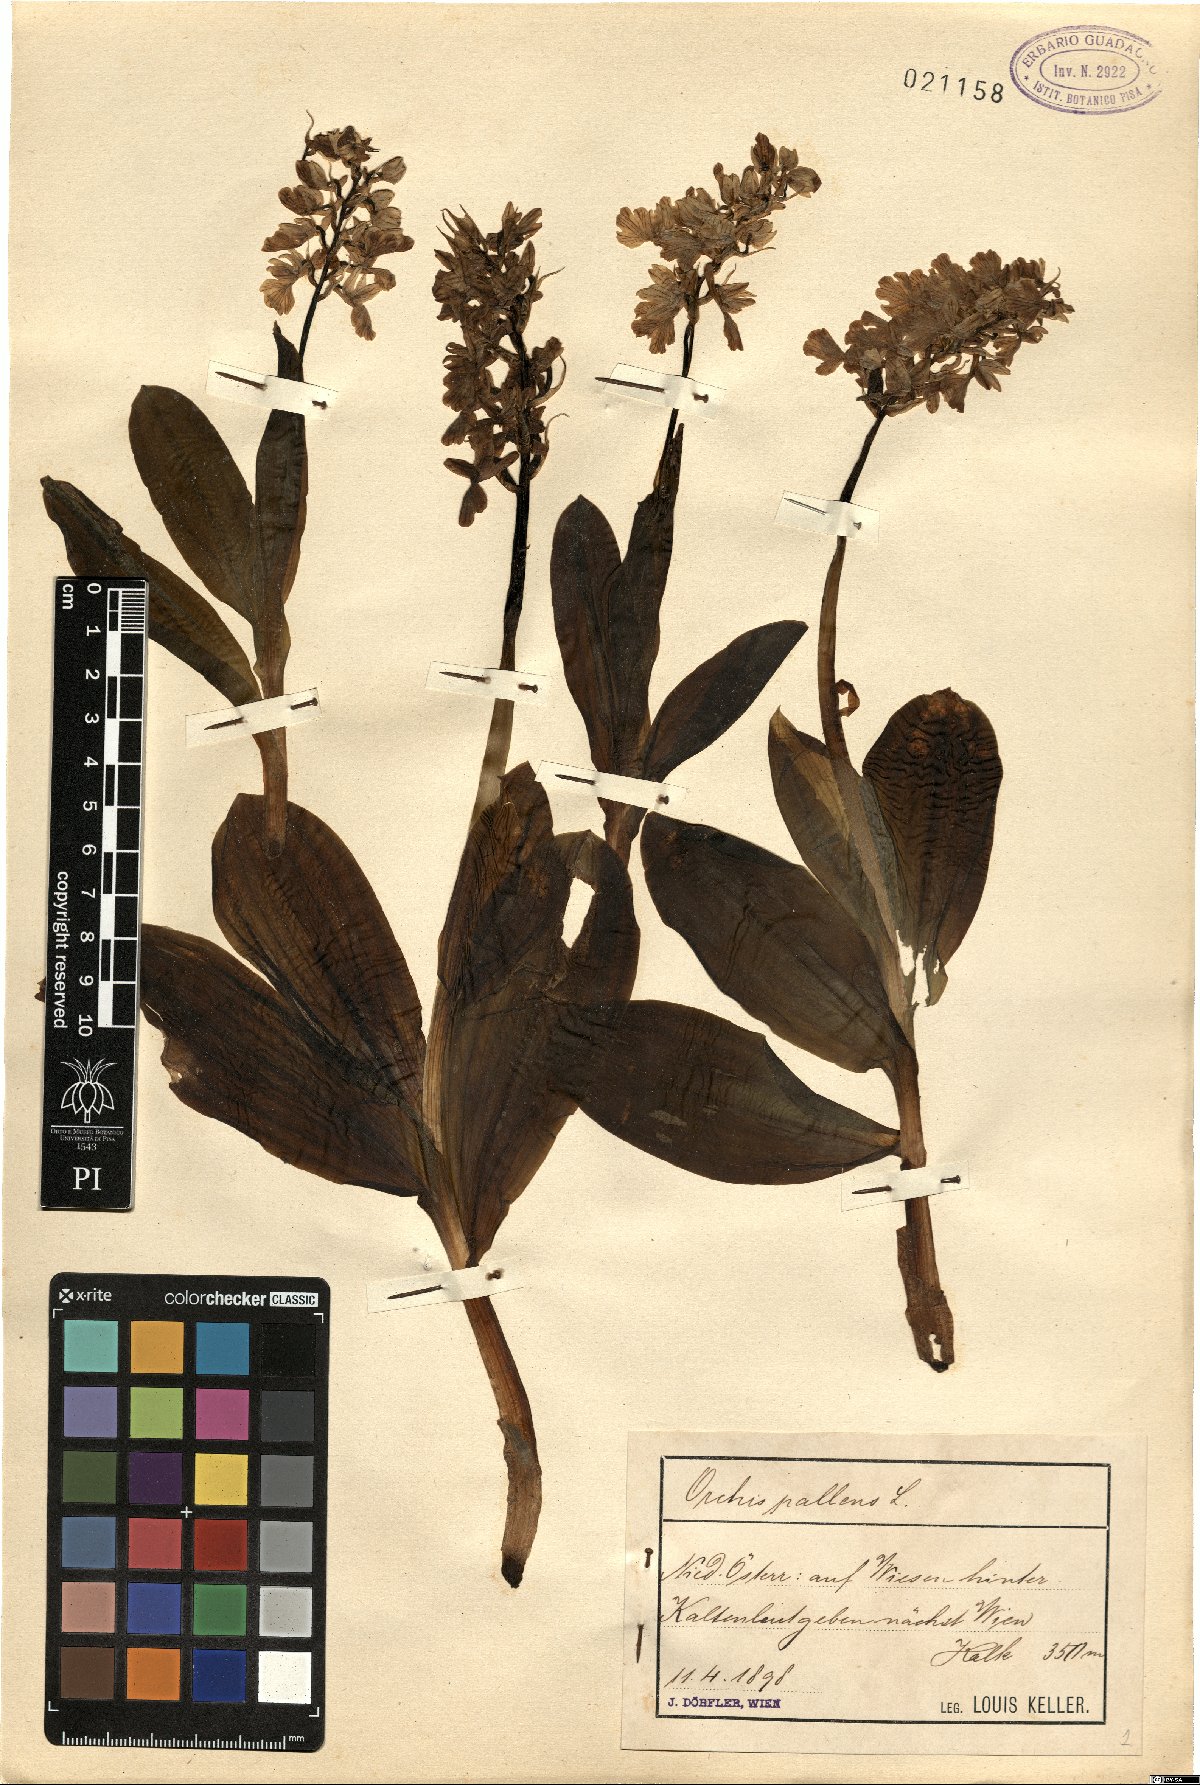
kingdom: Plantae
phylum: Tracheophyta
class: Liliopsida
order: Asparagales
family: Orchidaceae
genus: Orchis
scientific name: Orchis pallens
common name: Pale-flowered orchid
